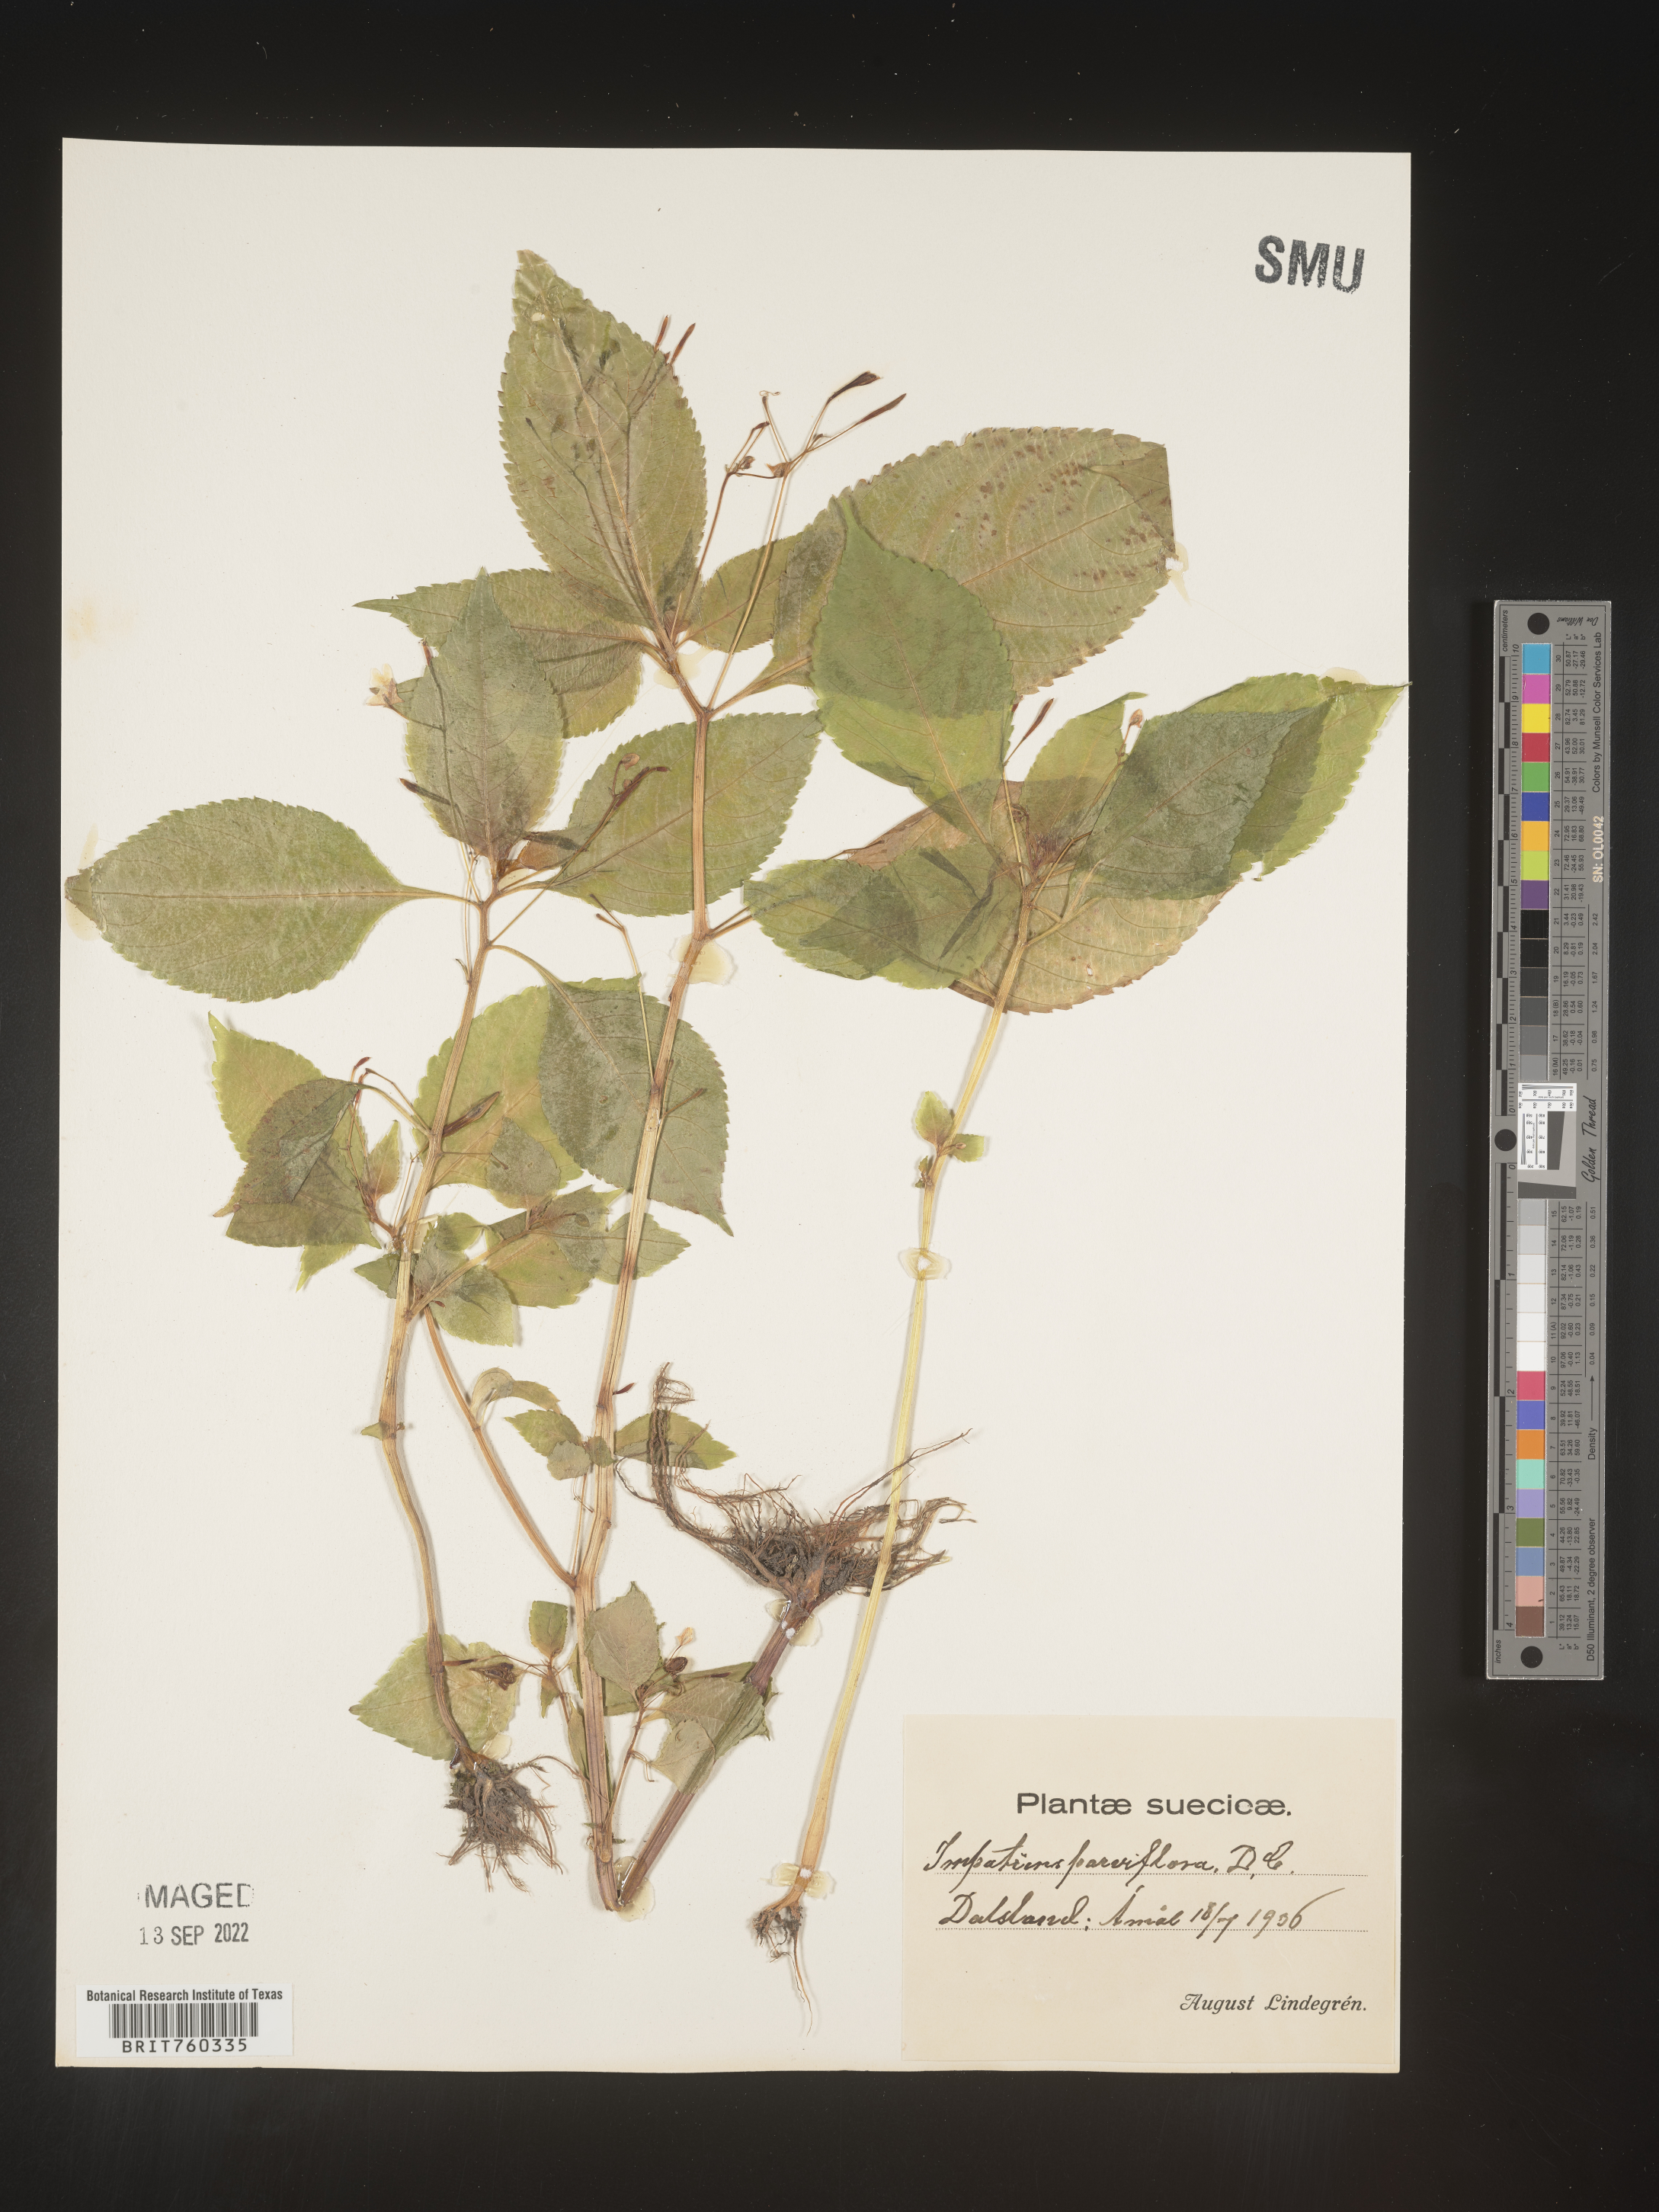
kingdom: Plantae
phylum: Tracheophyta
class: Magnoliopsida
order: Ericales
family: Balsaminaceae
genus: Impatiens
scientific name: Impatiens
